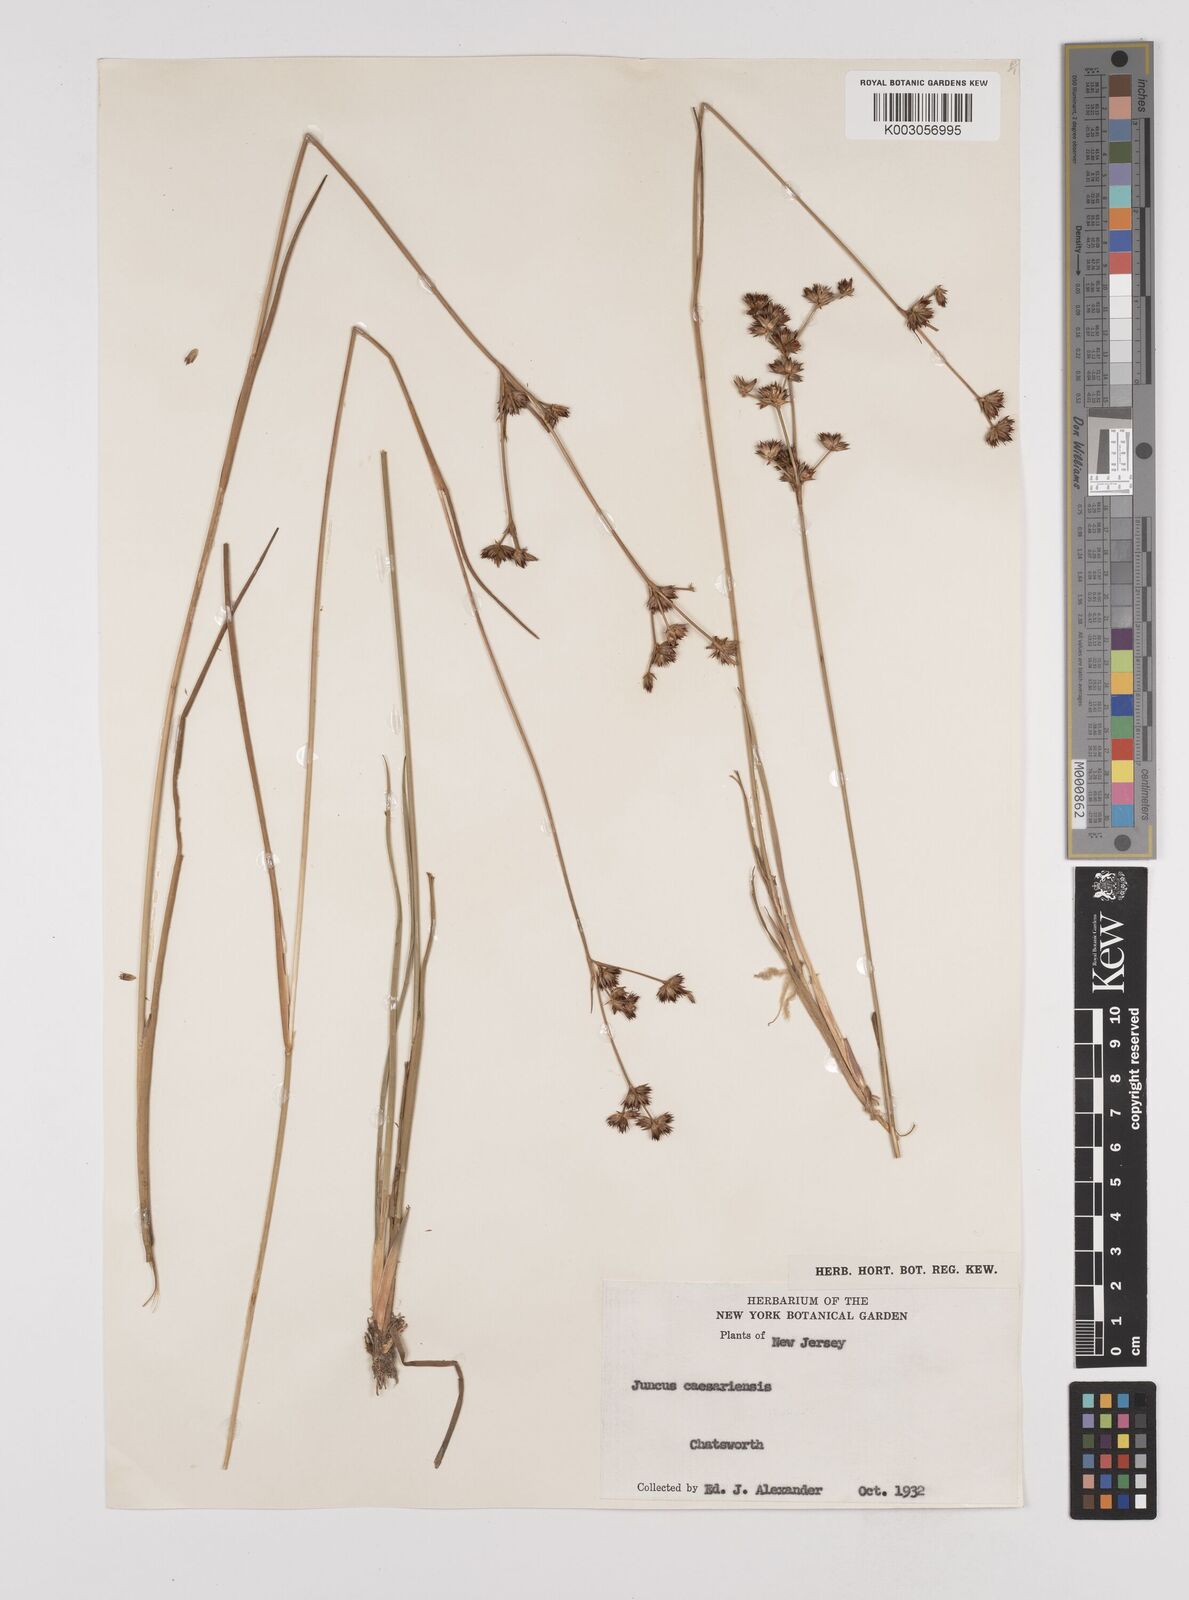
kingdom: Plantae
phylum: Tracheophyta
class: Liliopsida
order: Poales
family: Juncaceae
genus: Juncus
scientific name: Juncus caesariensis
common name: New jersey rush
